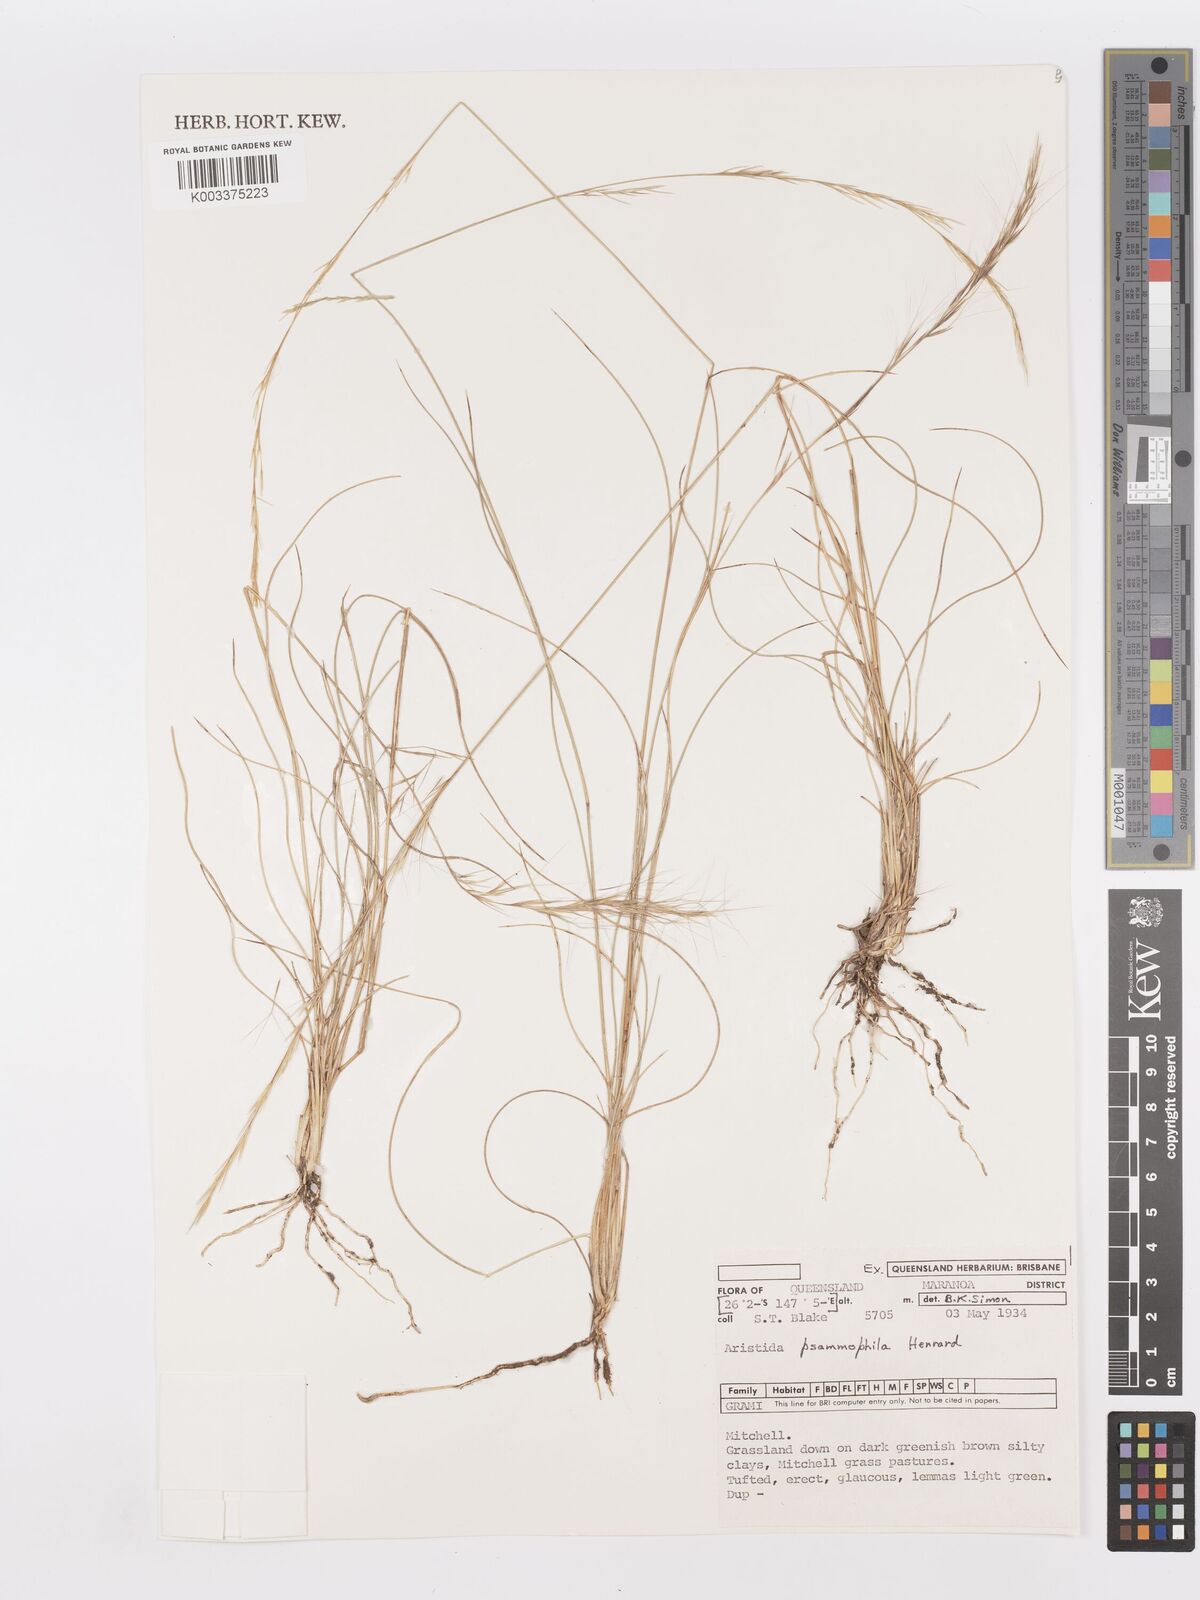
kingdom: Plantae
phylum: Tracheophyta
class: Liliopsida
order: Poales
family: Poaceae
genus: Aristida
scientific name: Aristida psammophila
